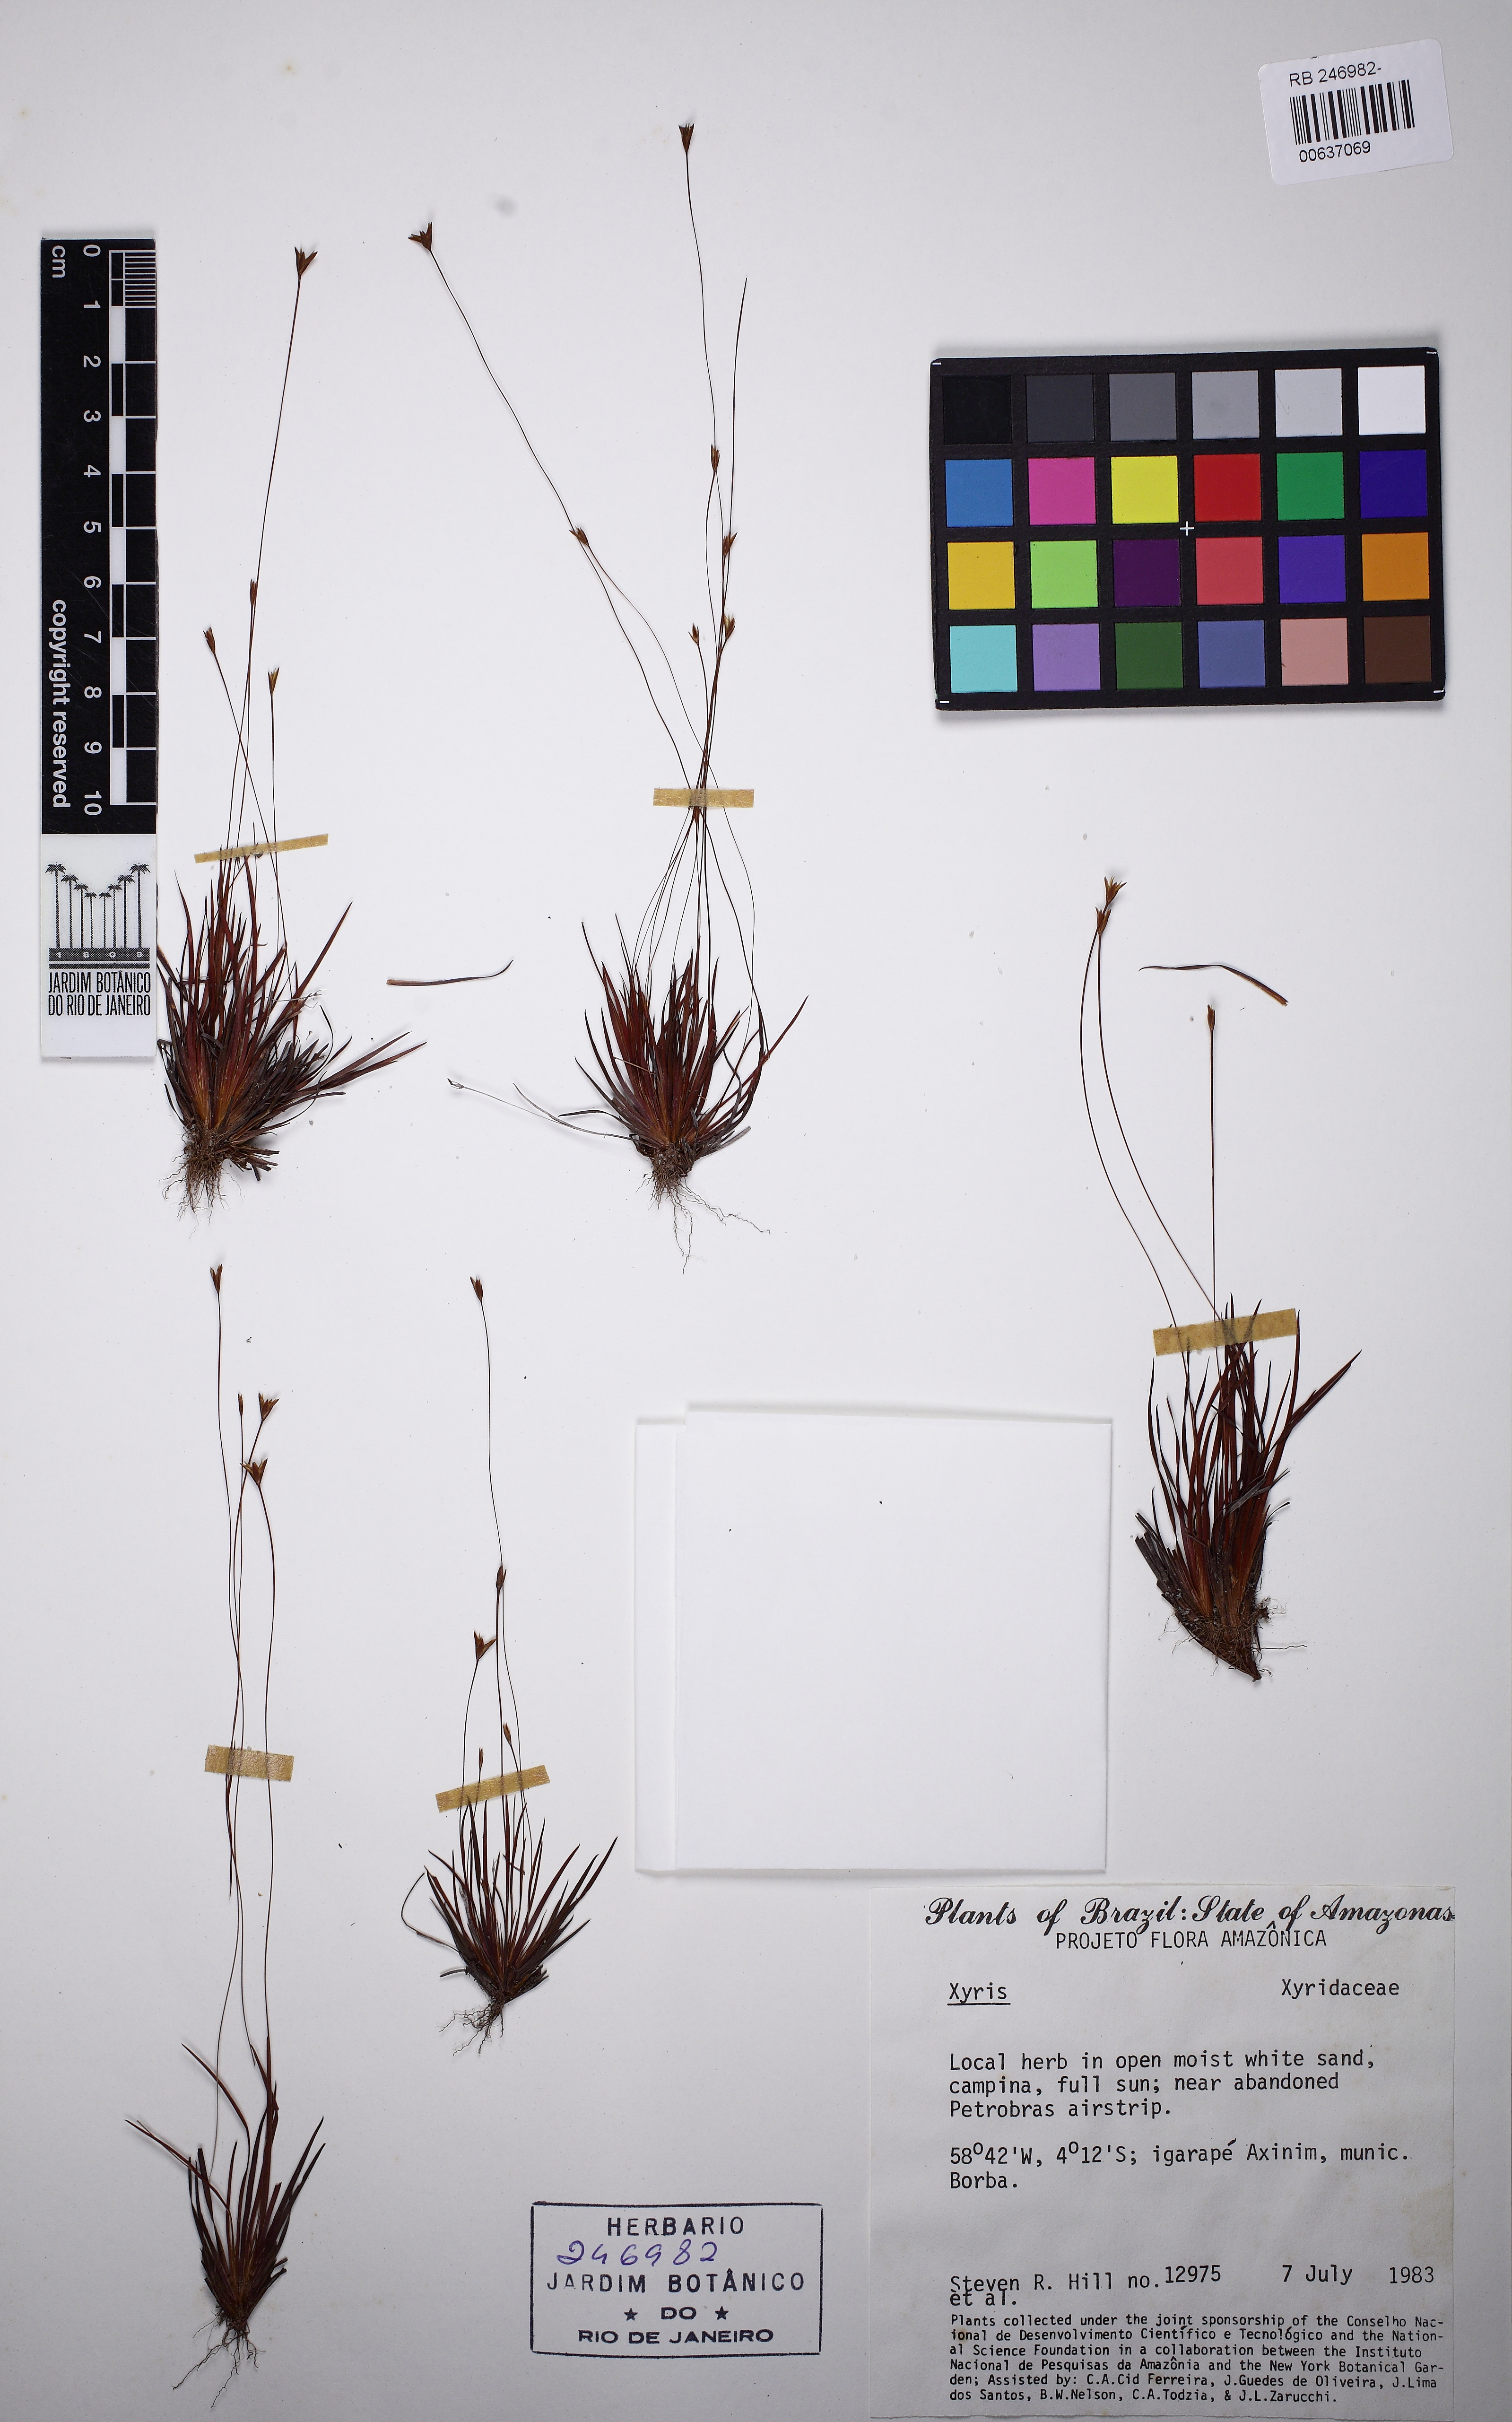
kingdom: Plantae
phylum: Tracheophyta
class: Liliopsida
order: Poales
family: Xyridaceae
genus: Xyris
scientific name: Xyris guianensis
